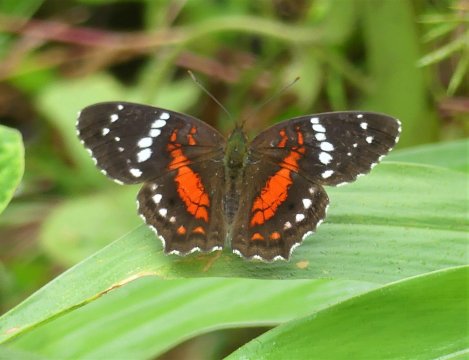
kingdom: Animalia
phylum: Arthropoda
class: Insecta
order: Lepidoptera
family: Nymphalidae
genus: Anartia
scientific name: Anartia amathea
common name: Red Peacock
